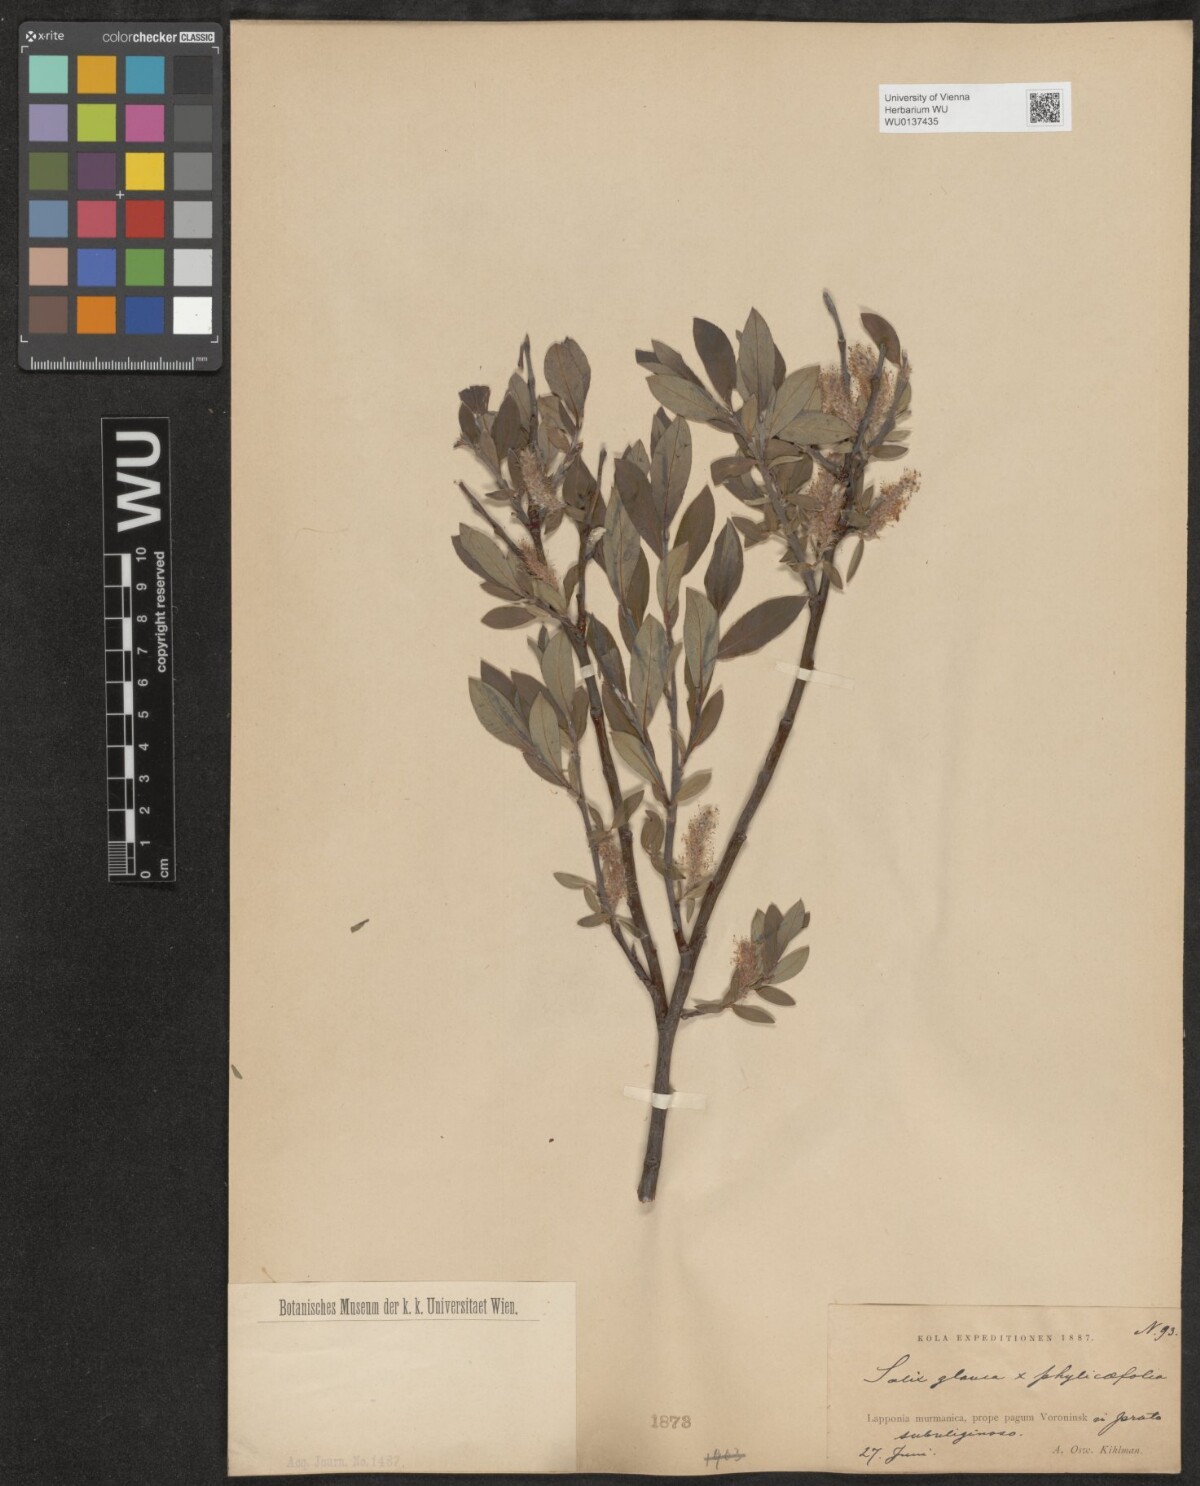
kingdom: Plantae
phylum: Tracheophyta
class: Magnoliopsida
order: Malpighiales
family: Salicaceae
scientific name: Salicaceae
